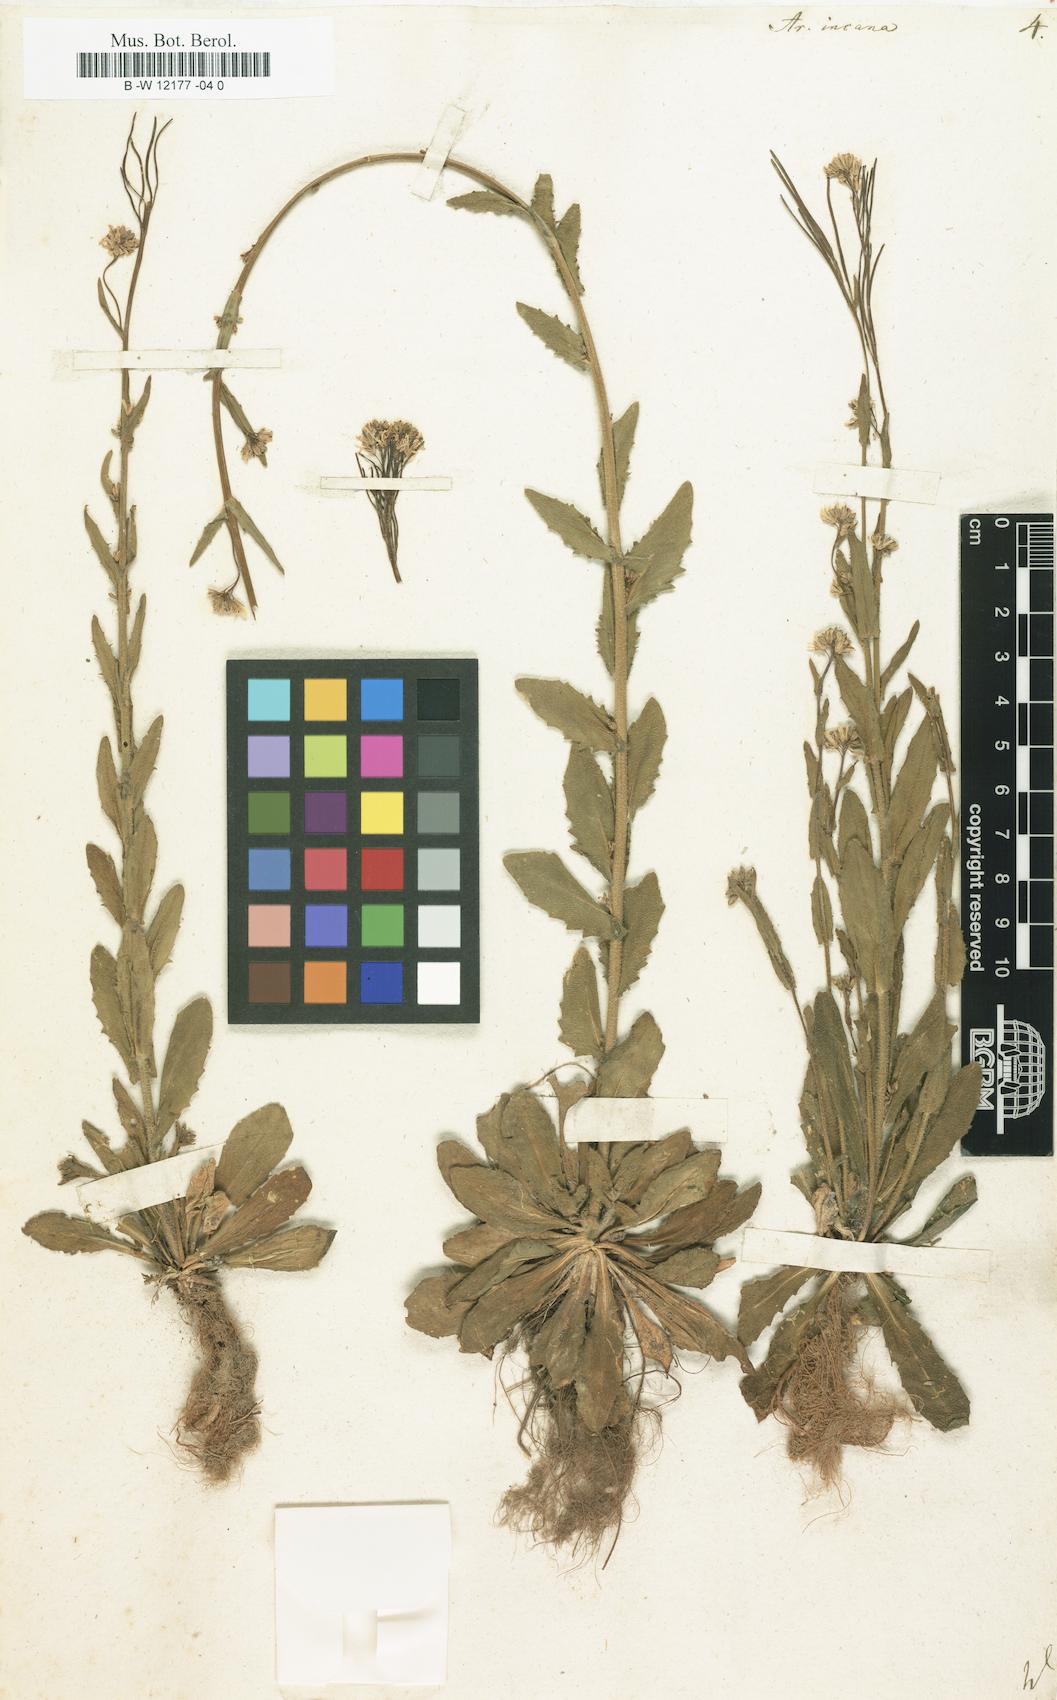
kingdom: Plantae
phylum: Tracheophyta
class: Magnoliopsida
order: Brassicales
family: Brassicaceae
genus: Arabis
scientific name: Arabis incana
